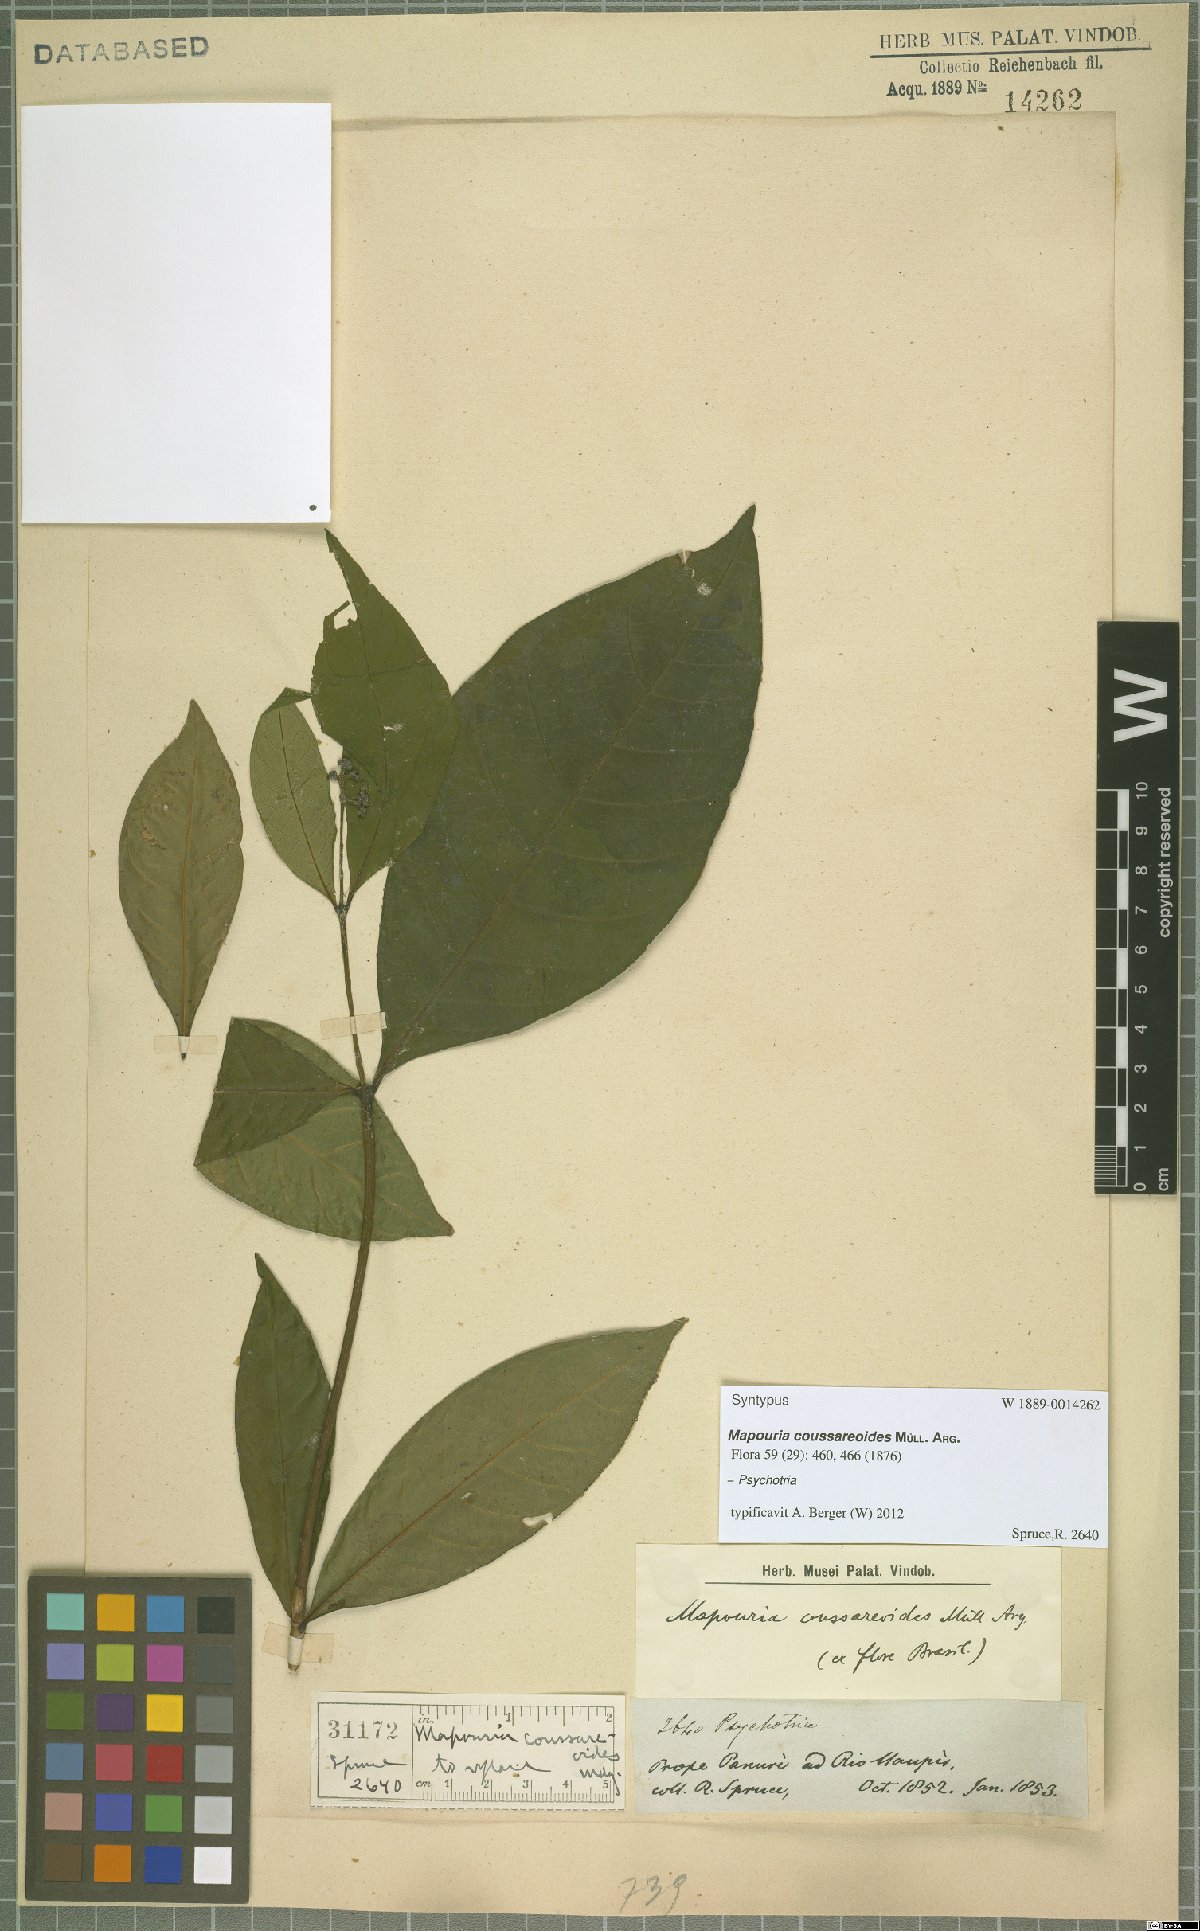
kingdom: Plantae
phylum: Tracheophyta
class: Magnoliopsida
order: Gentianales
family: Rubiaceae
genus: Psychotria
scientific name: Psychotria
